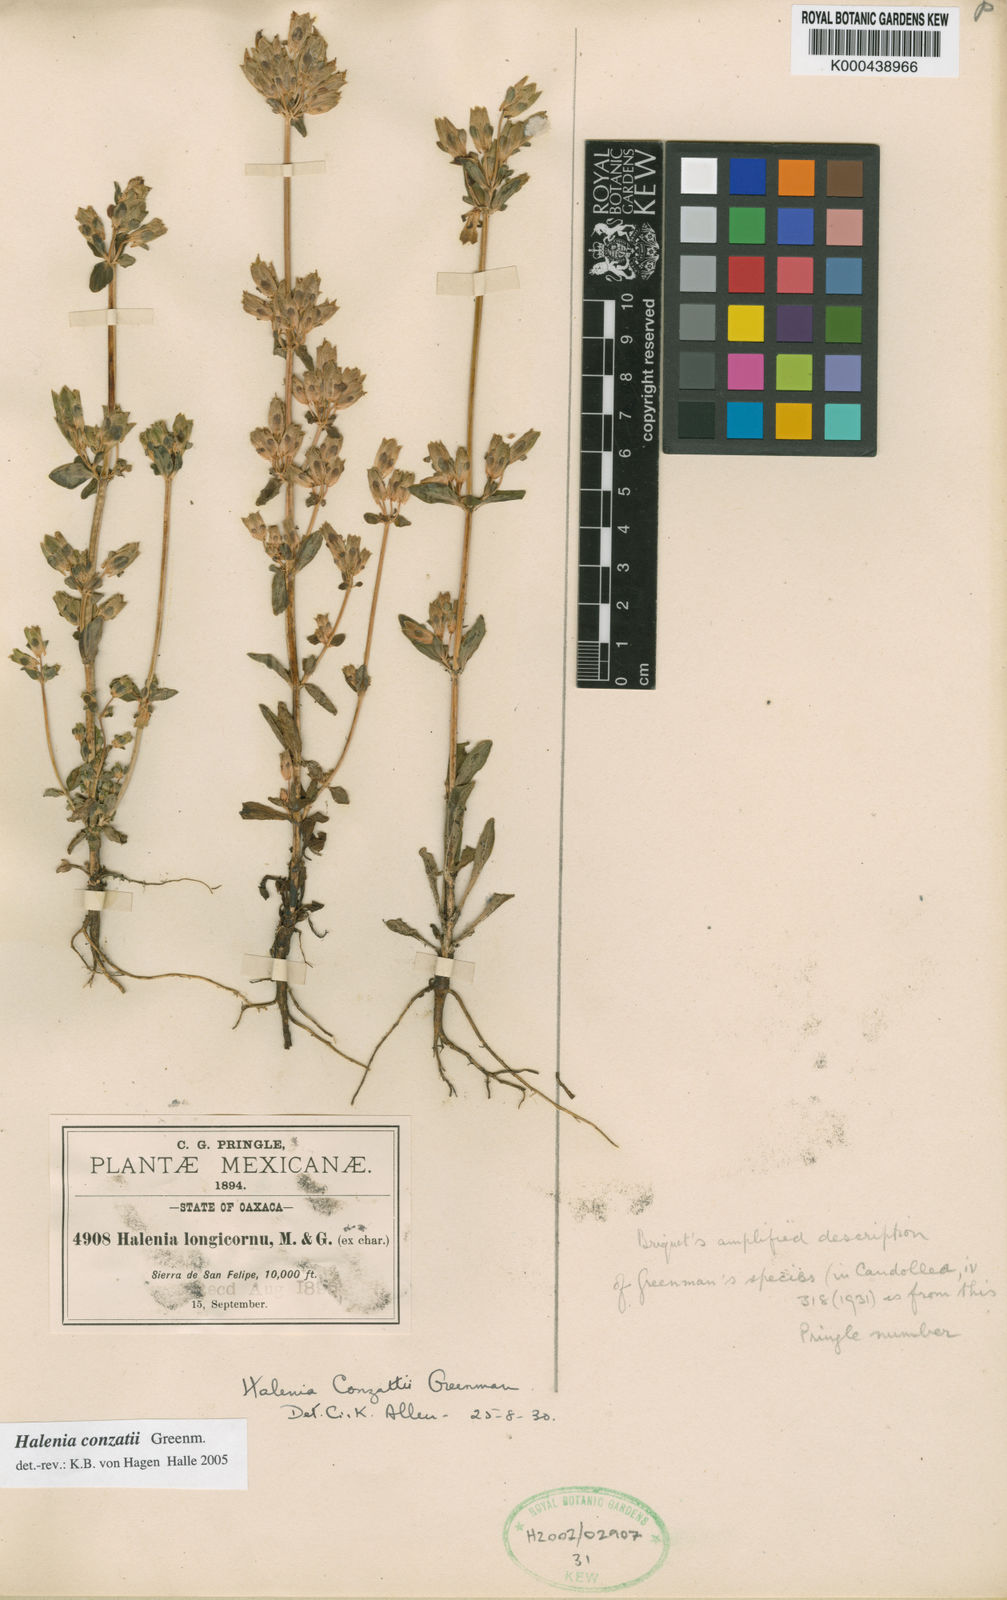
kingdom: Plantae
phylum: Tracheophyta
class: Magnoliopsida
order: Gentianales
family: Gentianaceae
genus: Halenia
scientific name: Halenia conzattii
